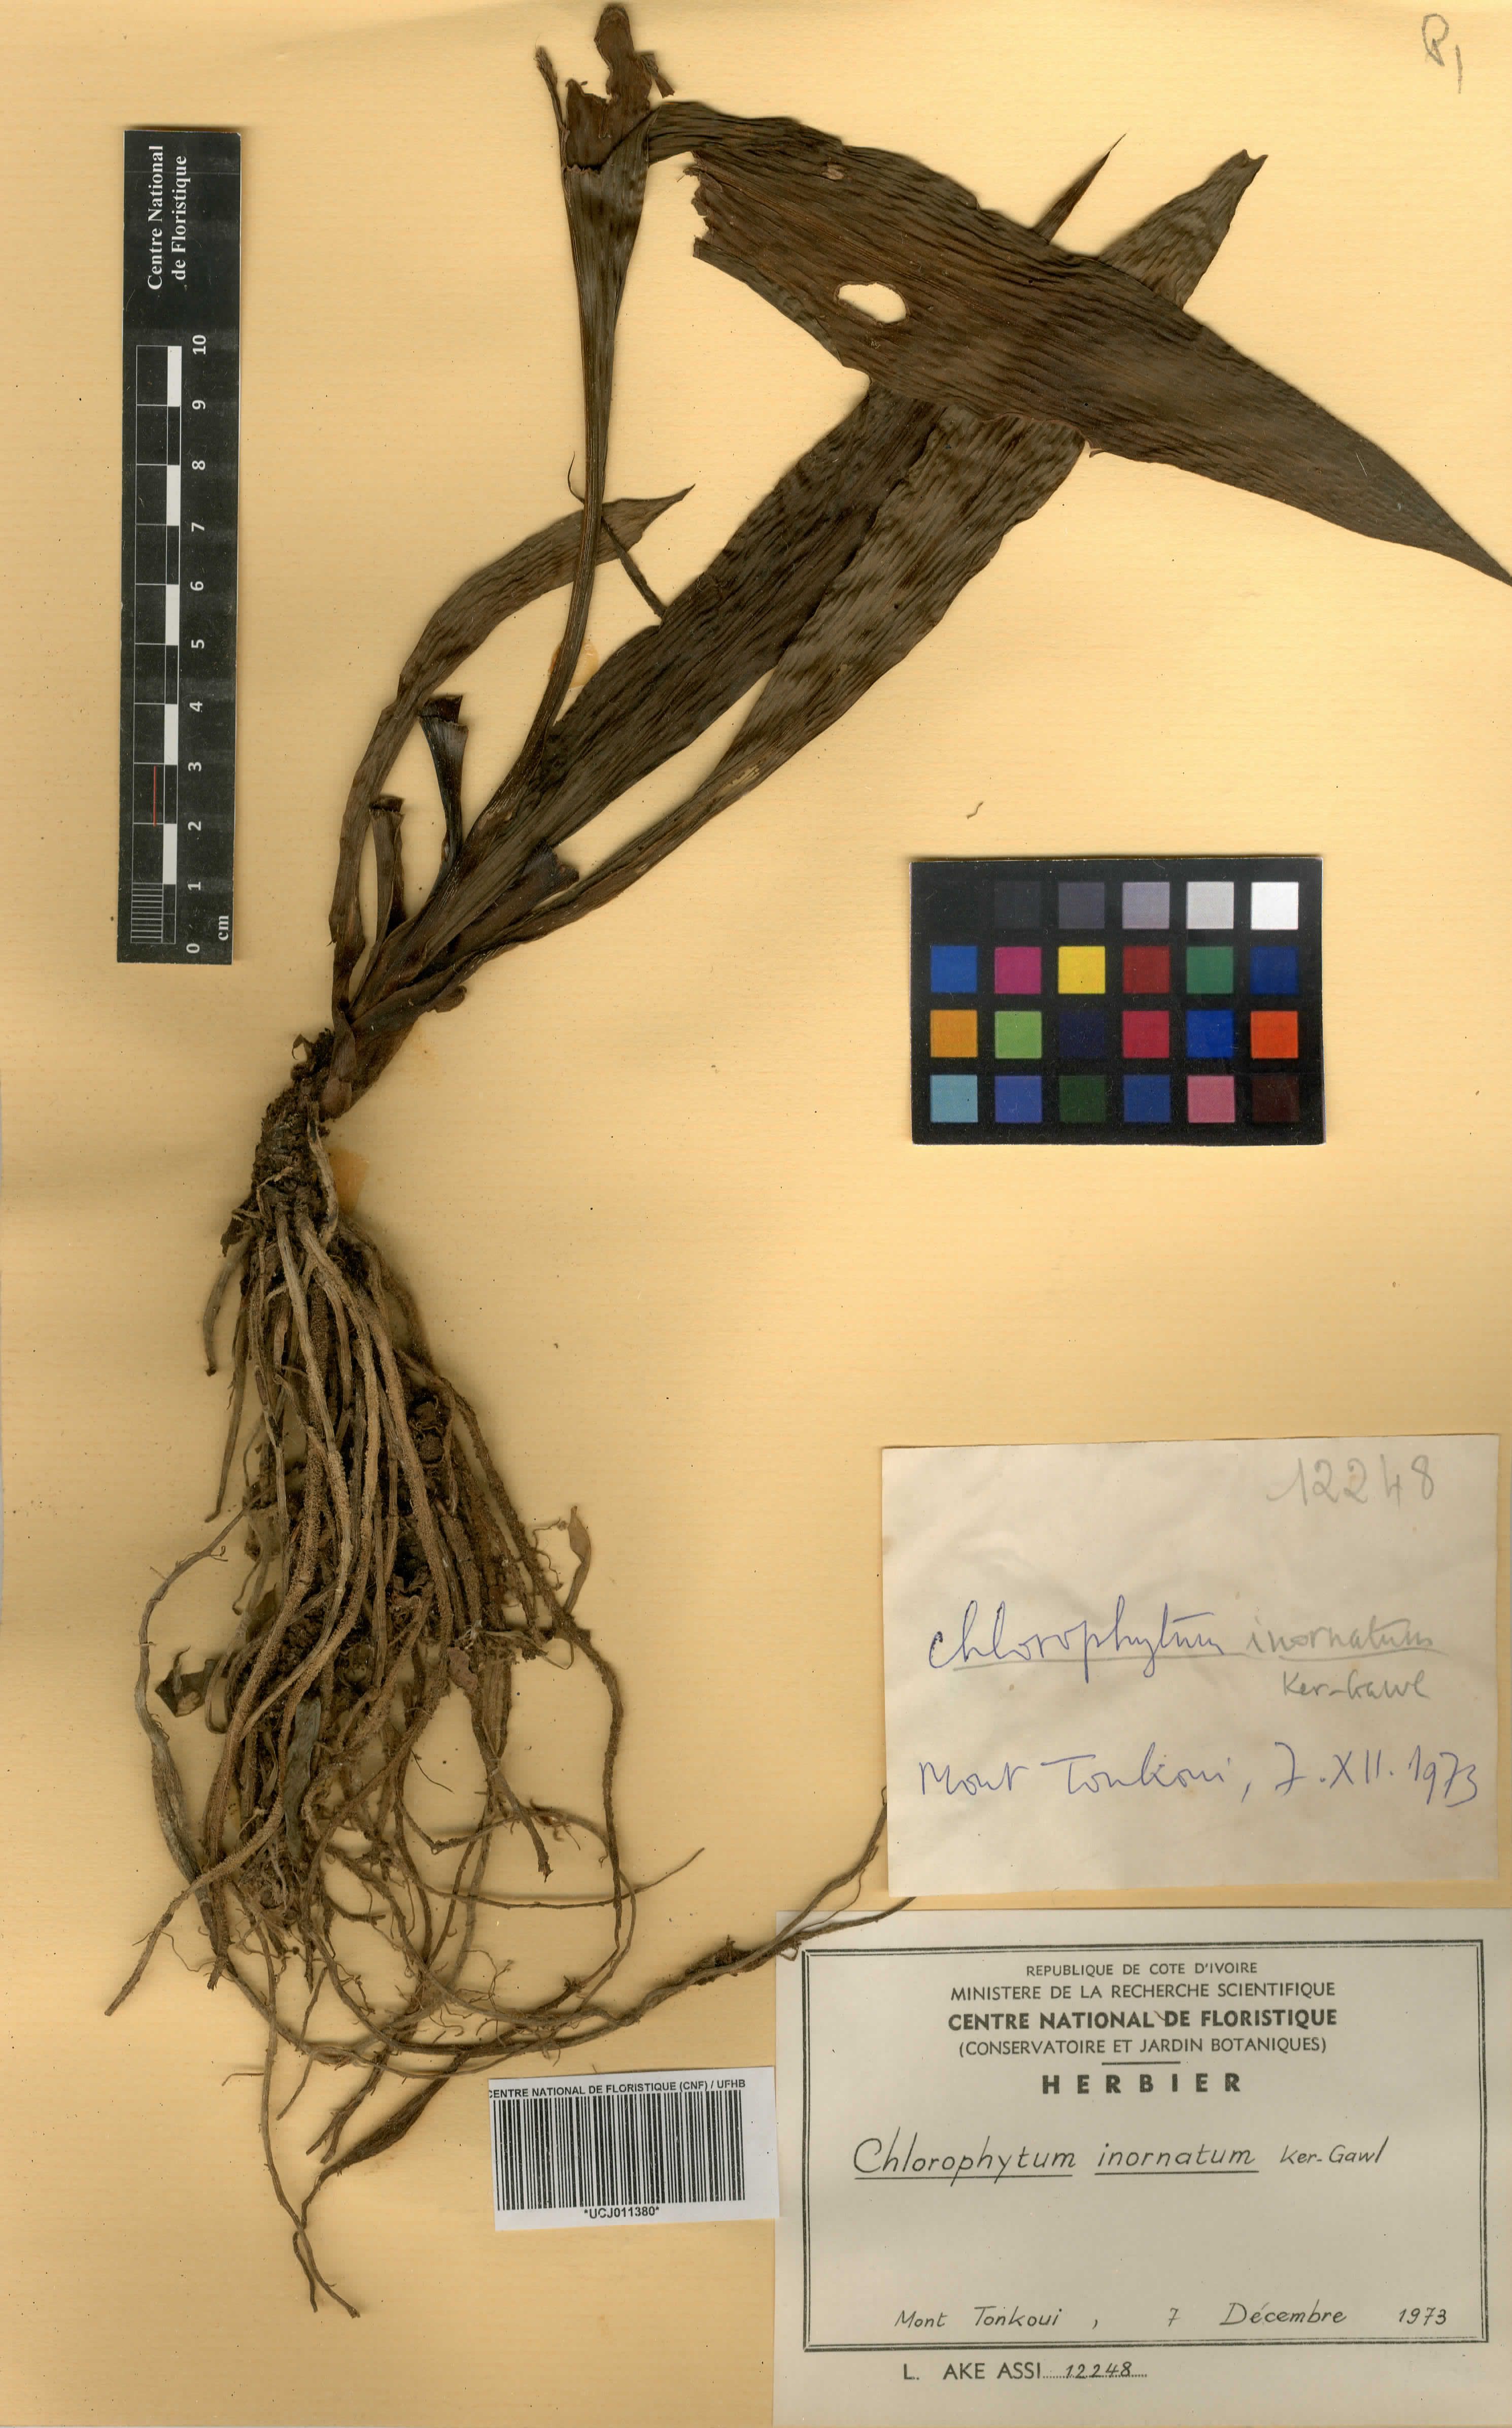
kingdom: Plantae
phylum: Tracheophyta
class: Liliopsida
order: Asparagales
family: Asparagaceae
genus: Chlorophytum
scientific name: Chlorophytum inornatum
